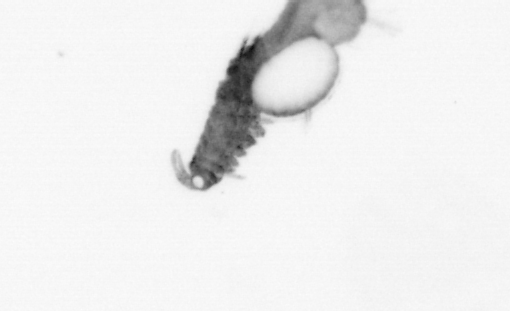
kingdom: Animalia
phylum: Annelida
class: Polychaeta
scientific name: Polychaeta
